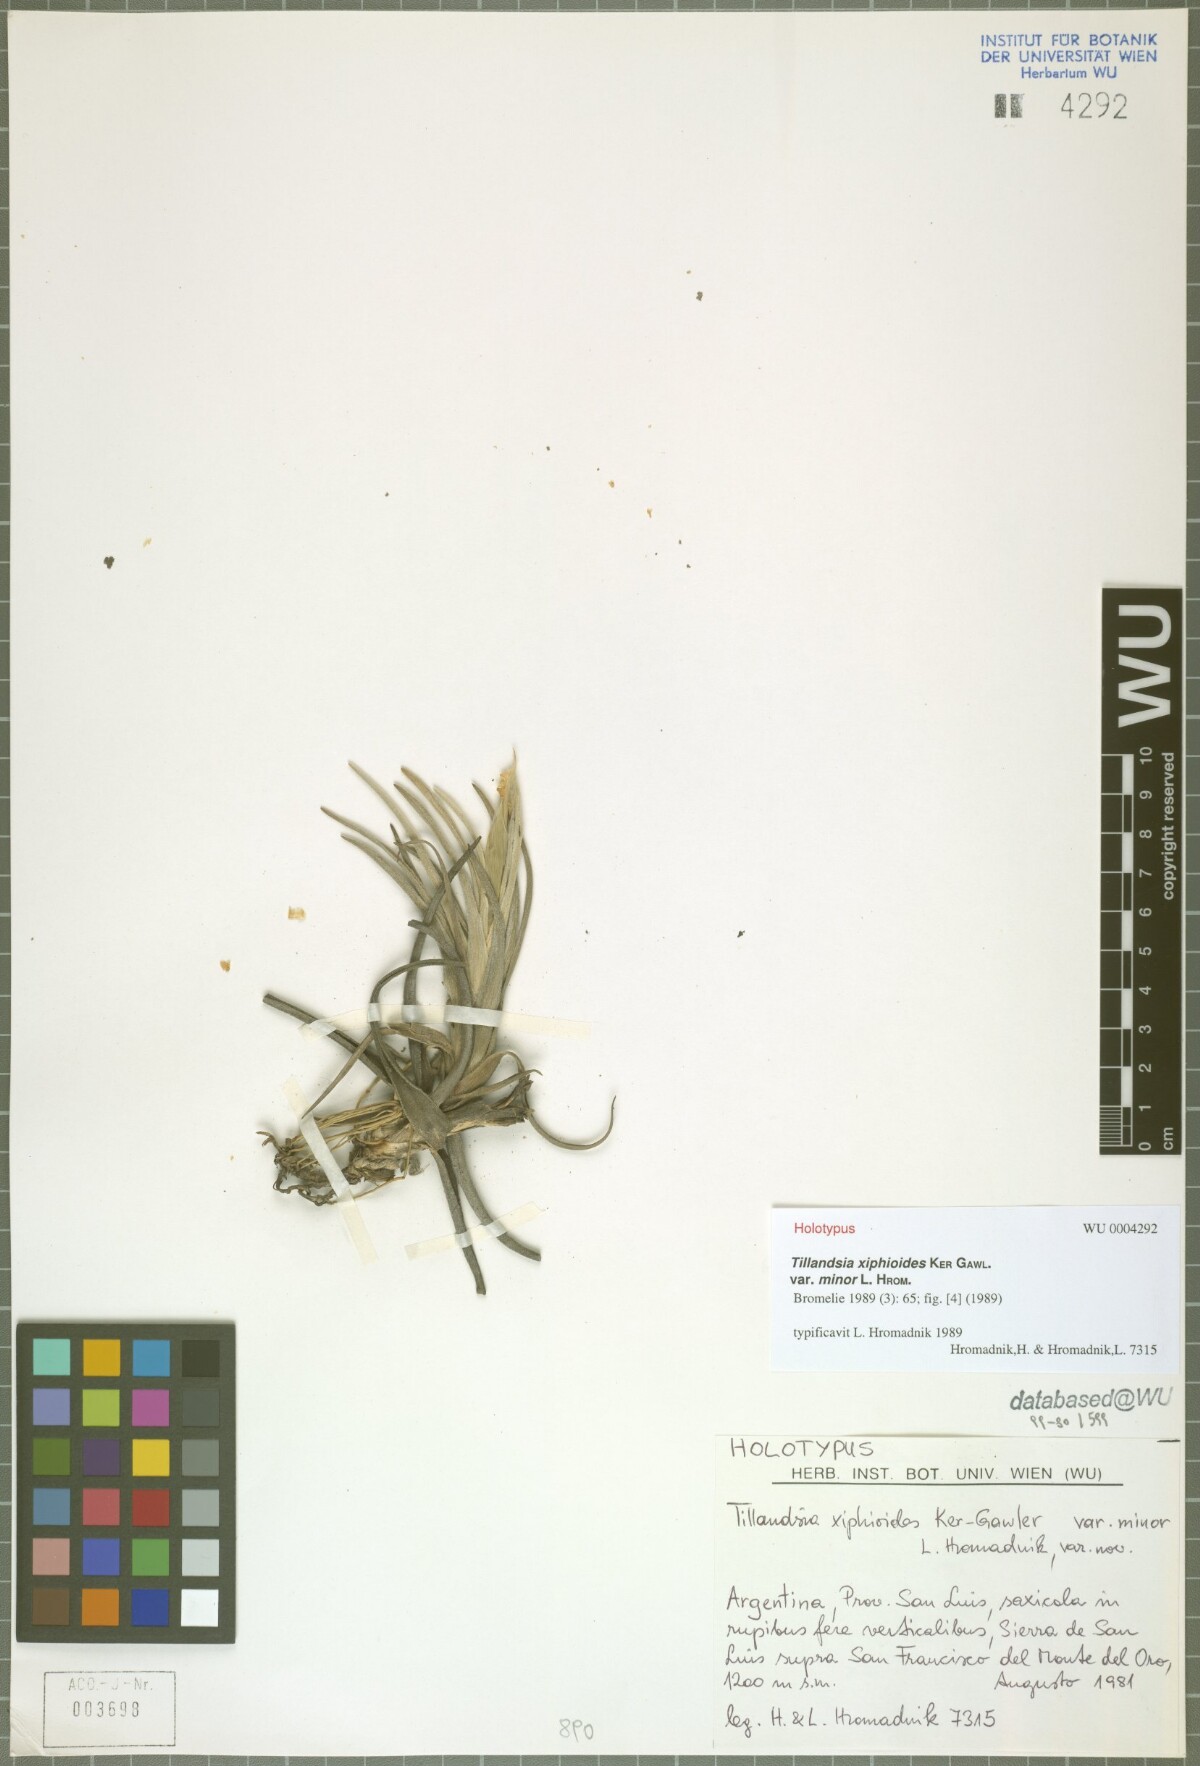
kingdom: Plantae
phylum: Tracheophyta
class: Liliopsida
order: Poales
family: Bromeliaceae
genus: Tillandsia
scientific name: Tillandsia xiphioides
